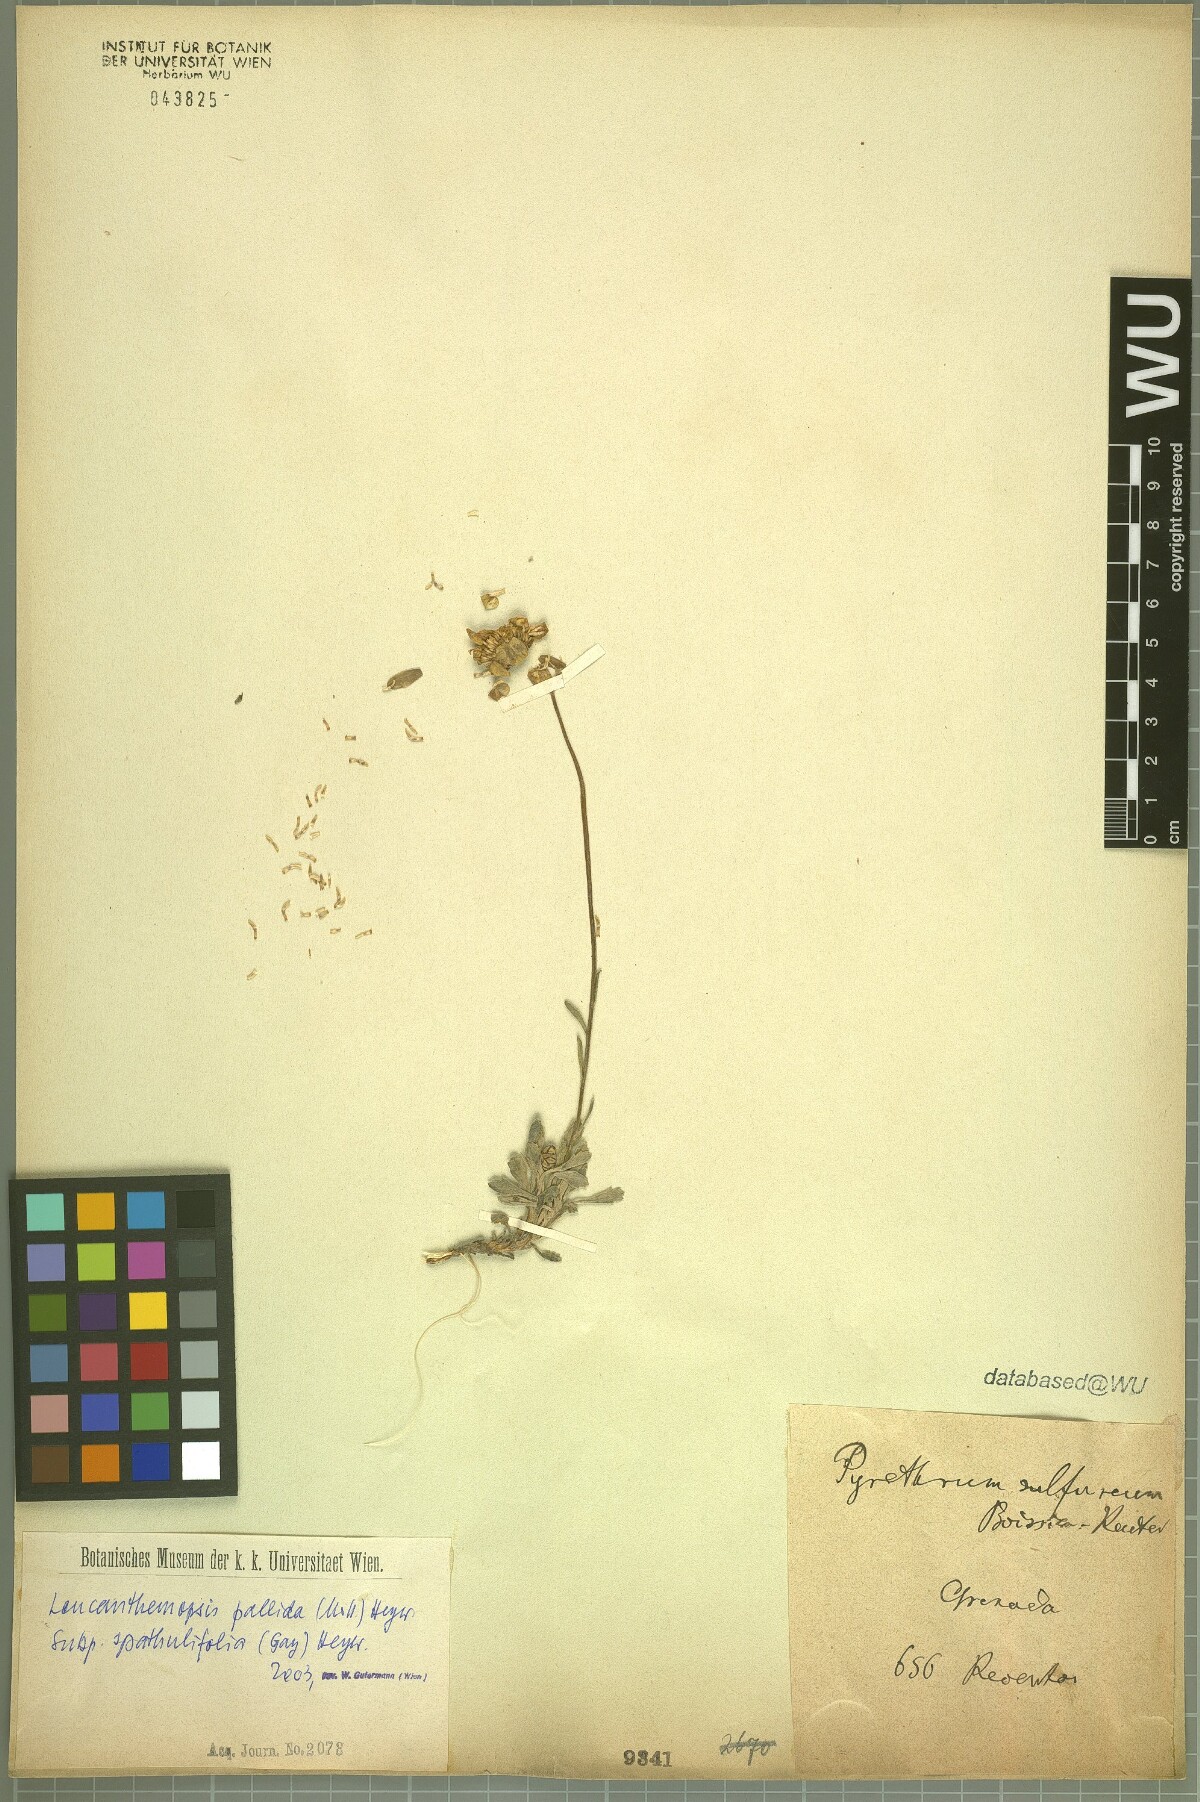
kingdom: Plantae
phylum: Tracheophyta
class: Magnoliopsida
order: Asterales
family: Asteraceae
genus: Leucanthemopsis
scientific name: Leucanthemopsis spathulifolia
